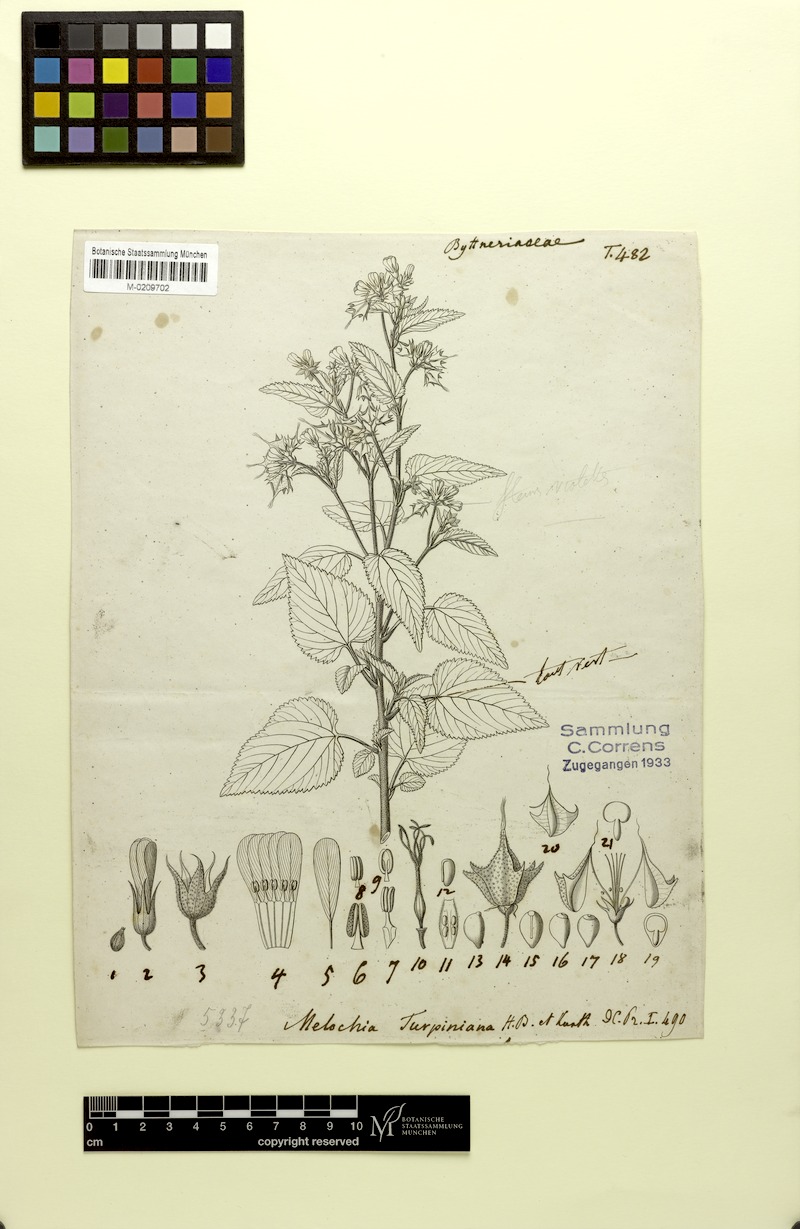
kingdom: Plantae
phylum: Tracheophyta
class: Magnoliopsida
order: Malvales
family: Malvaceae
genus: Melochia
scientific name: Melochia tomentosa
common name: Black torch
